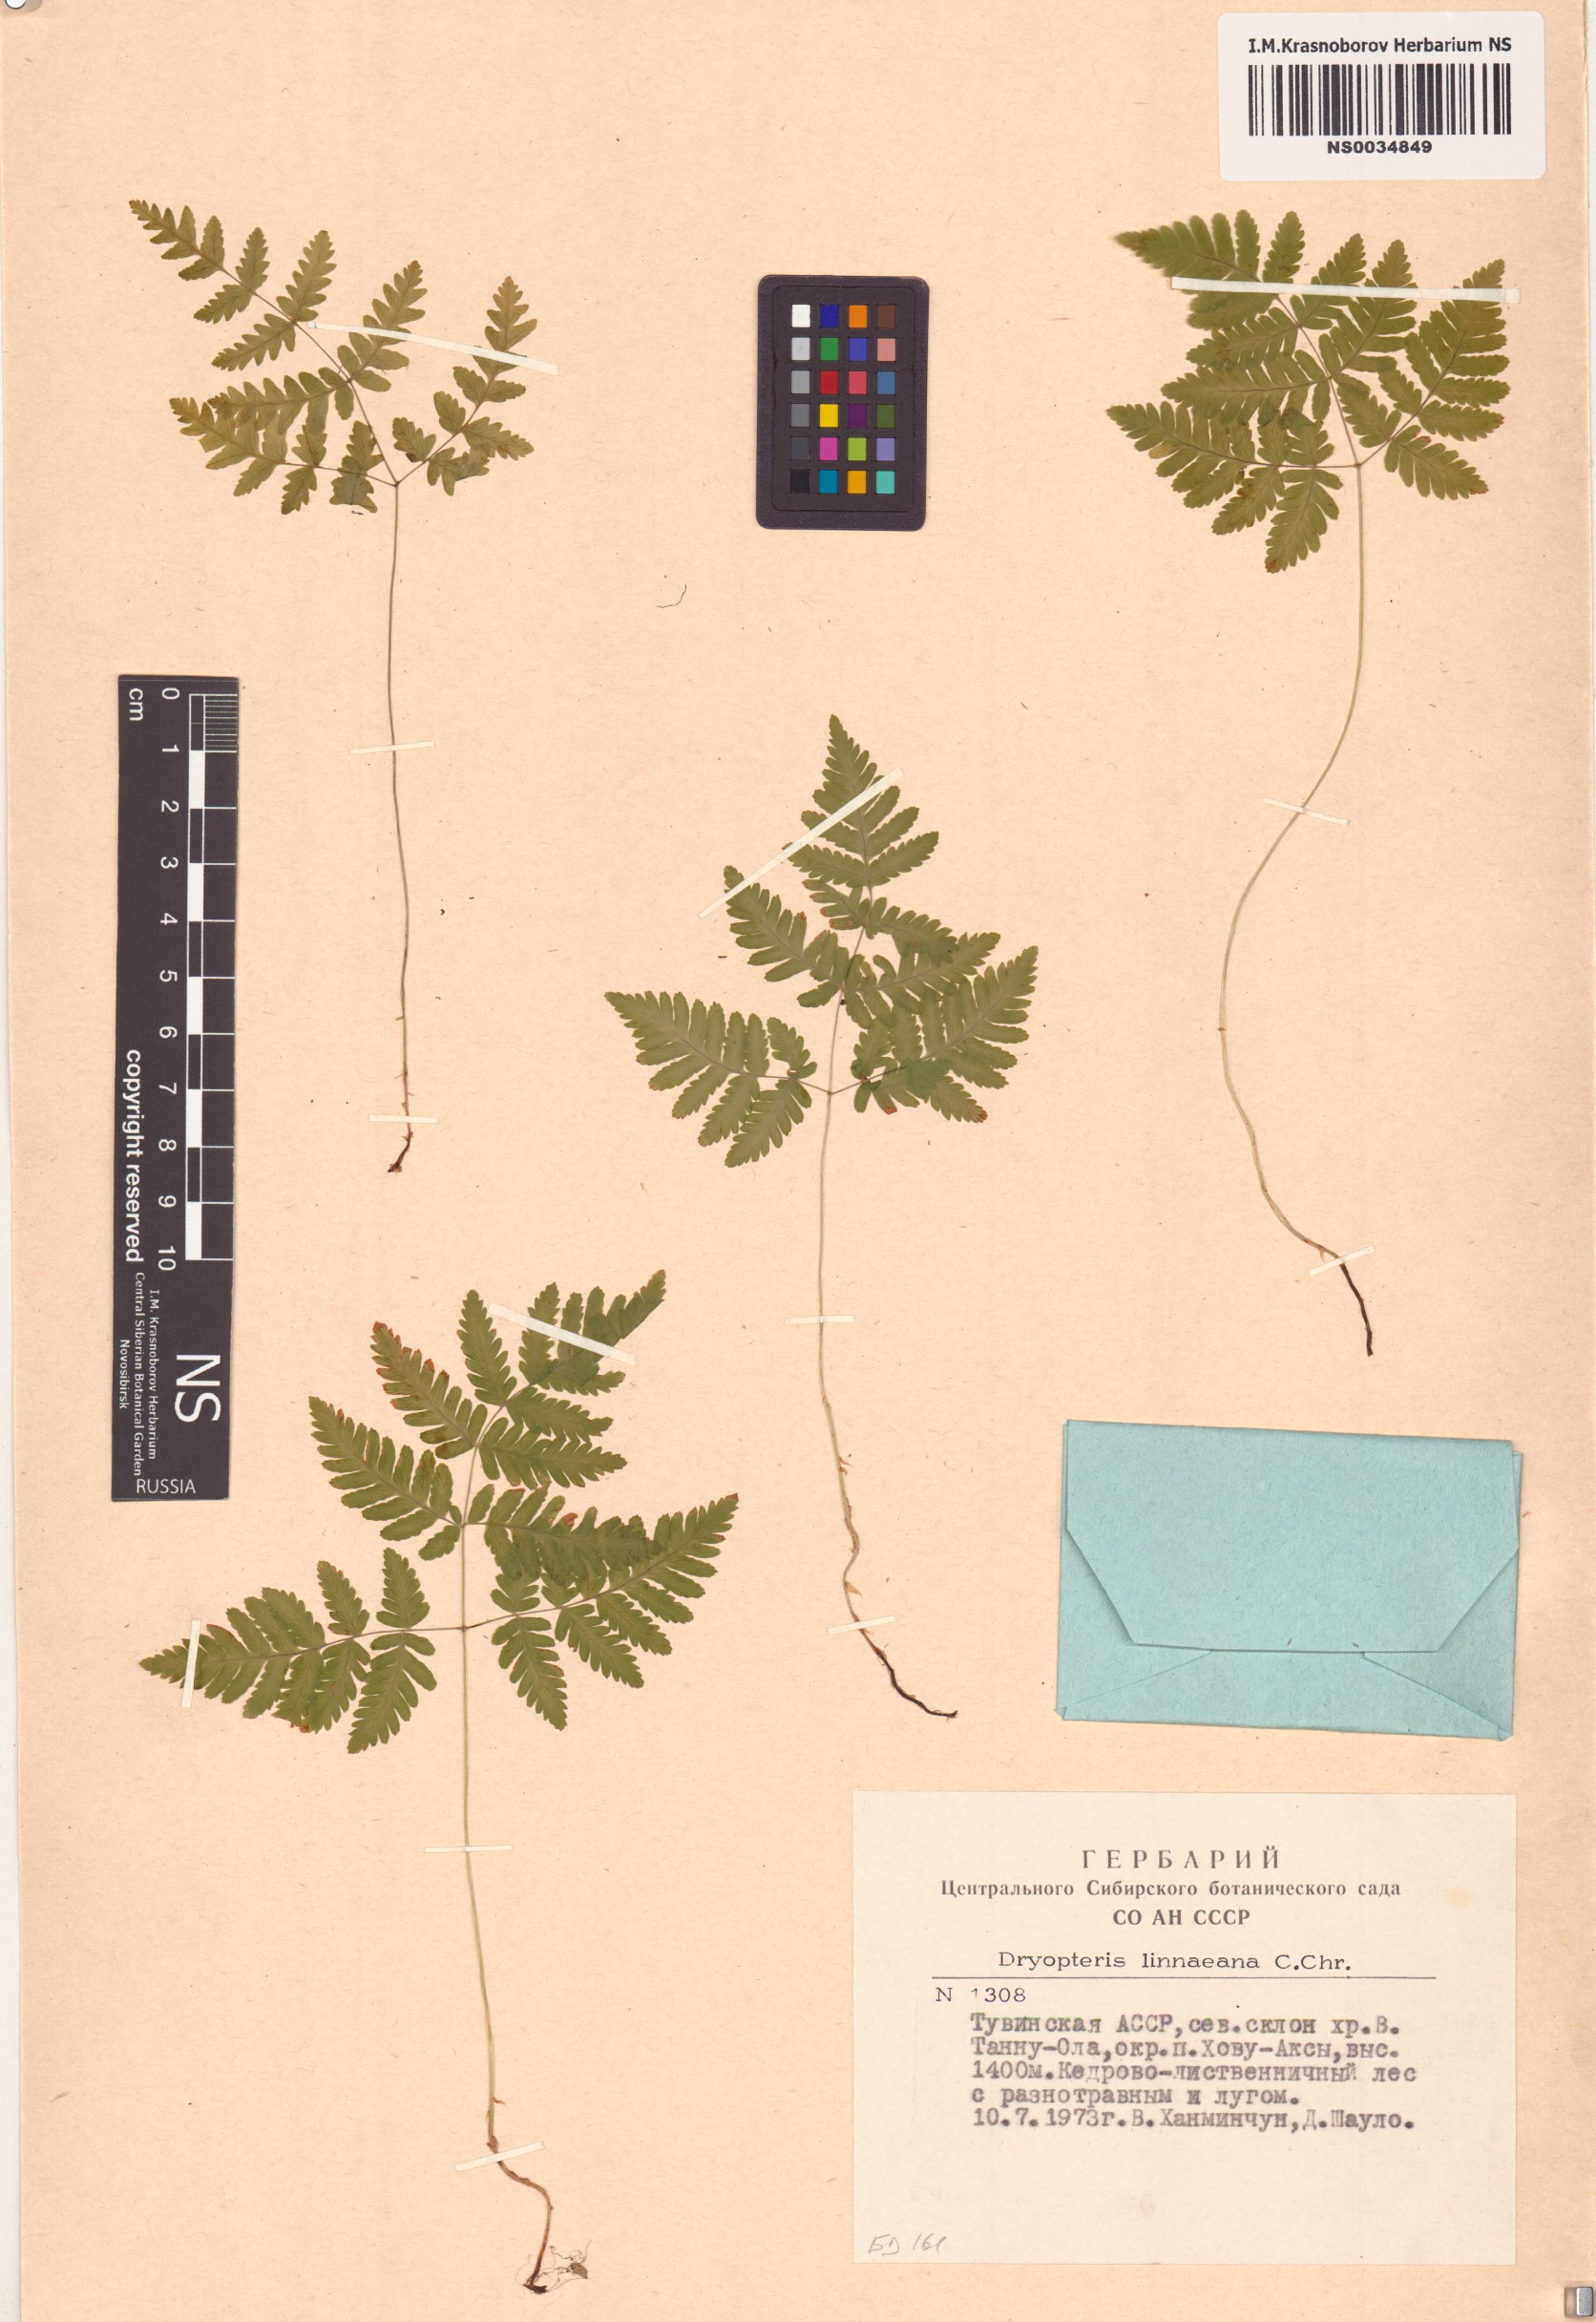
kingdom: Plantae
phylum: Tracheophyta
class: Polypodiopsida
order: Polypodiales
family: Cystopteridaceae
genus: Gymnocarpium
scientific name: Gymnocarpium dryopteris
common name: Oak fern
